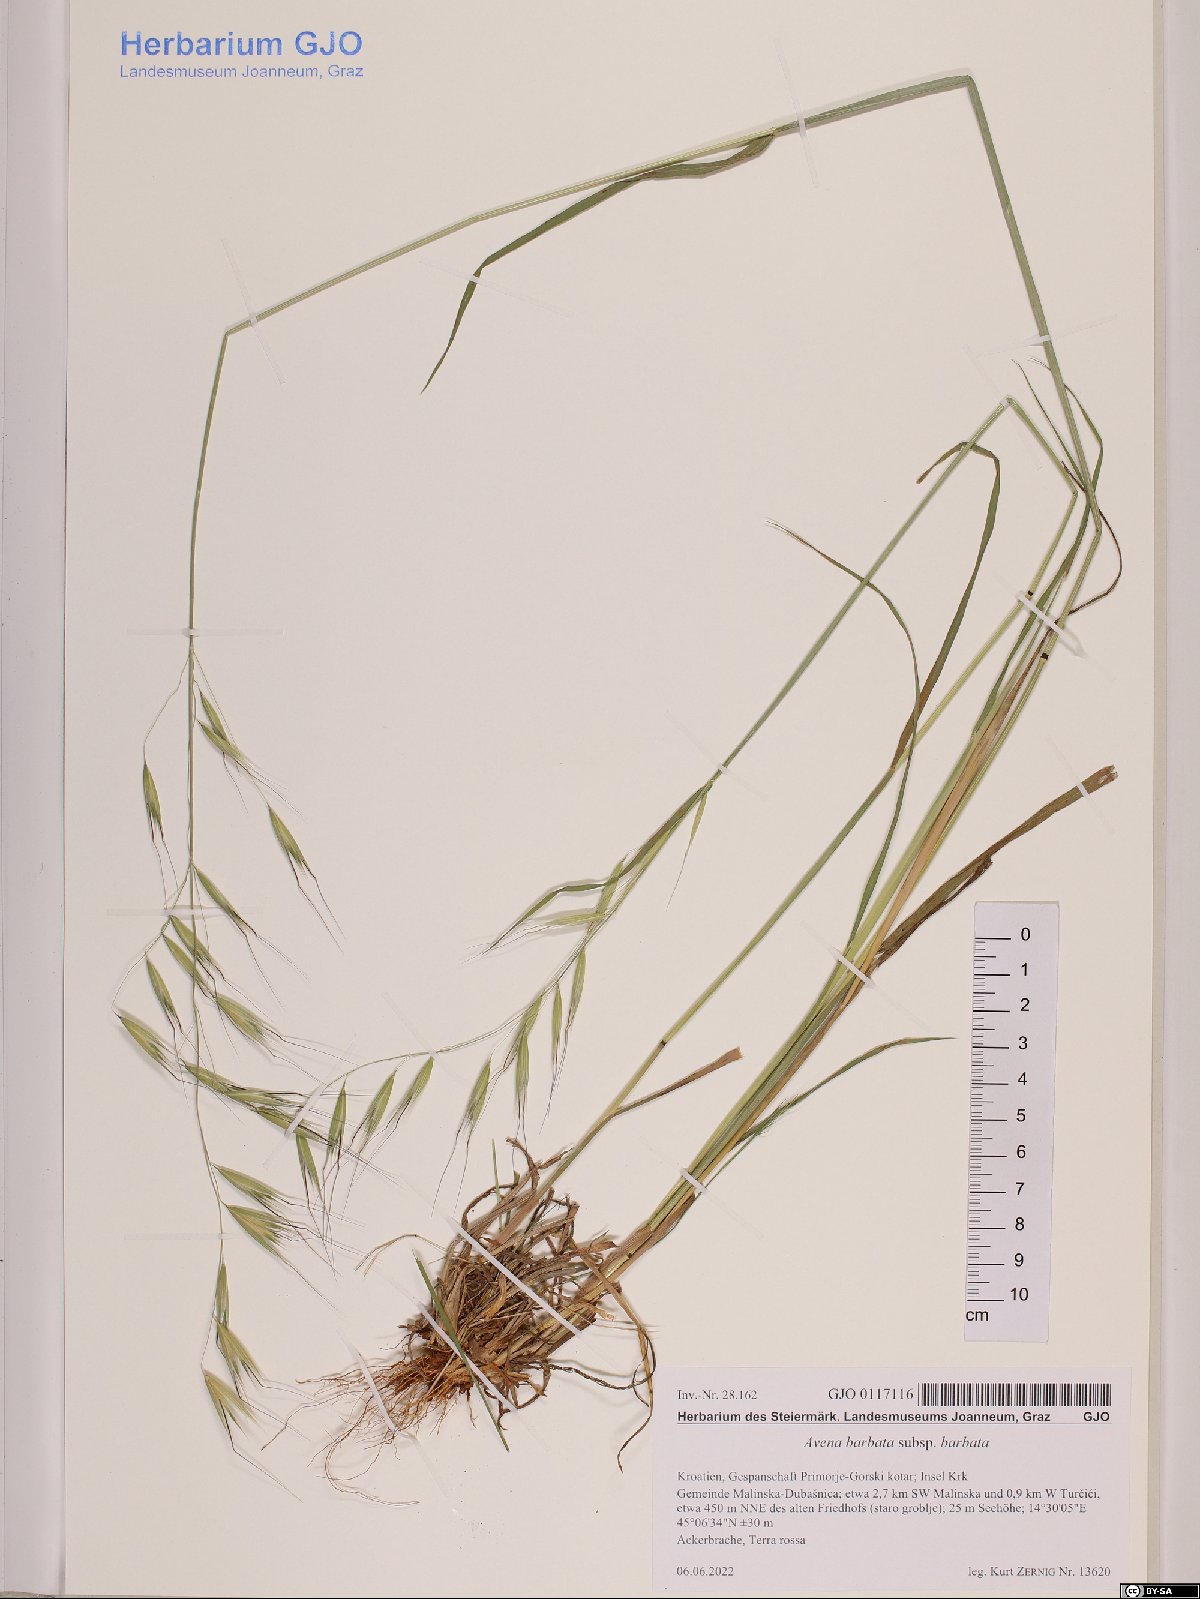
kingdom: Plantae
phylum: Tracheophyta
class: Liliopsida
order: Poales
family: Poaceae
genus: Avena
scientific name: Avena barbata
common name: Slender oat
